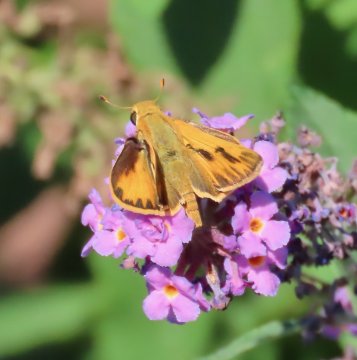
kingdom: Animalia
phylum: Arthropoda
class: Insecta
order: Lepidoptera
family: Hesperiidae
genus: Hylephila
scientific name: Hylephila phyleus
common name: Fiery Skipper
